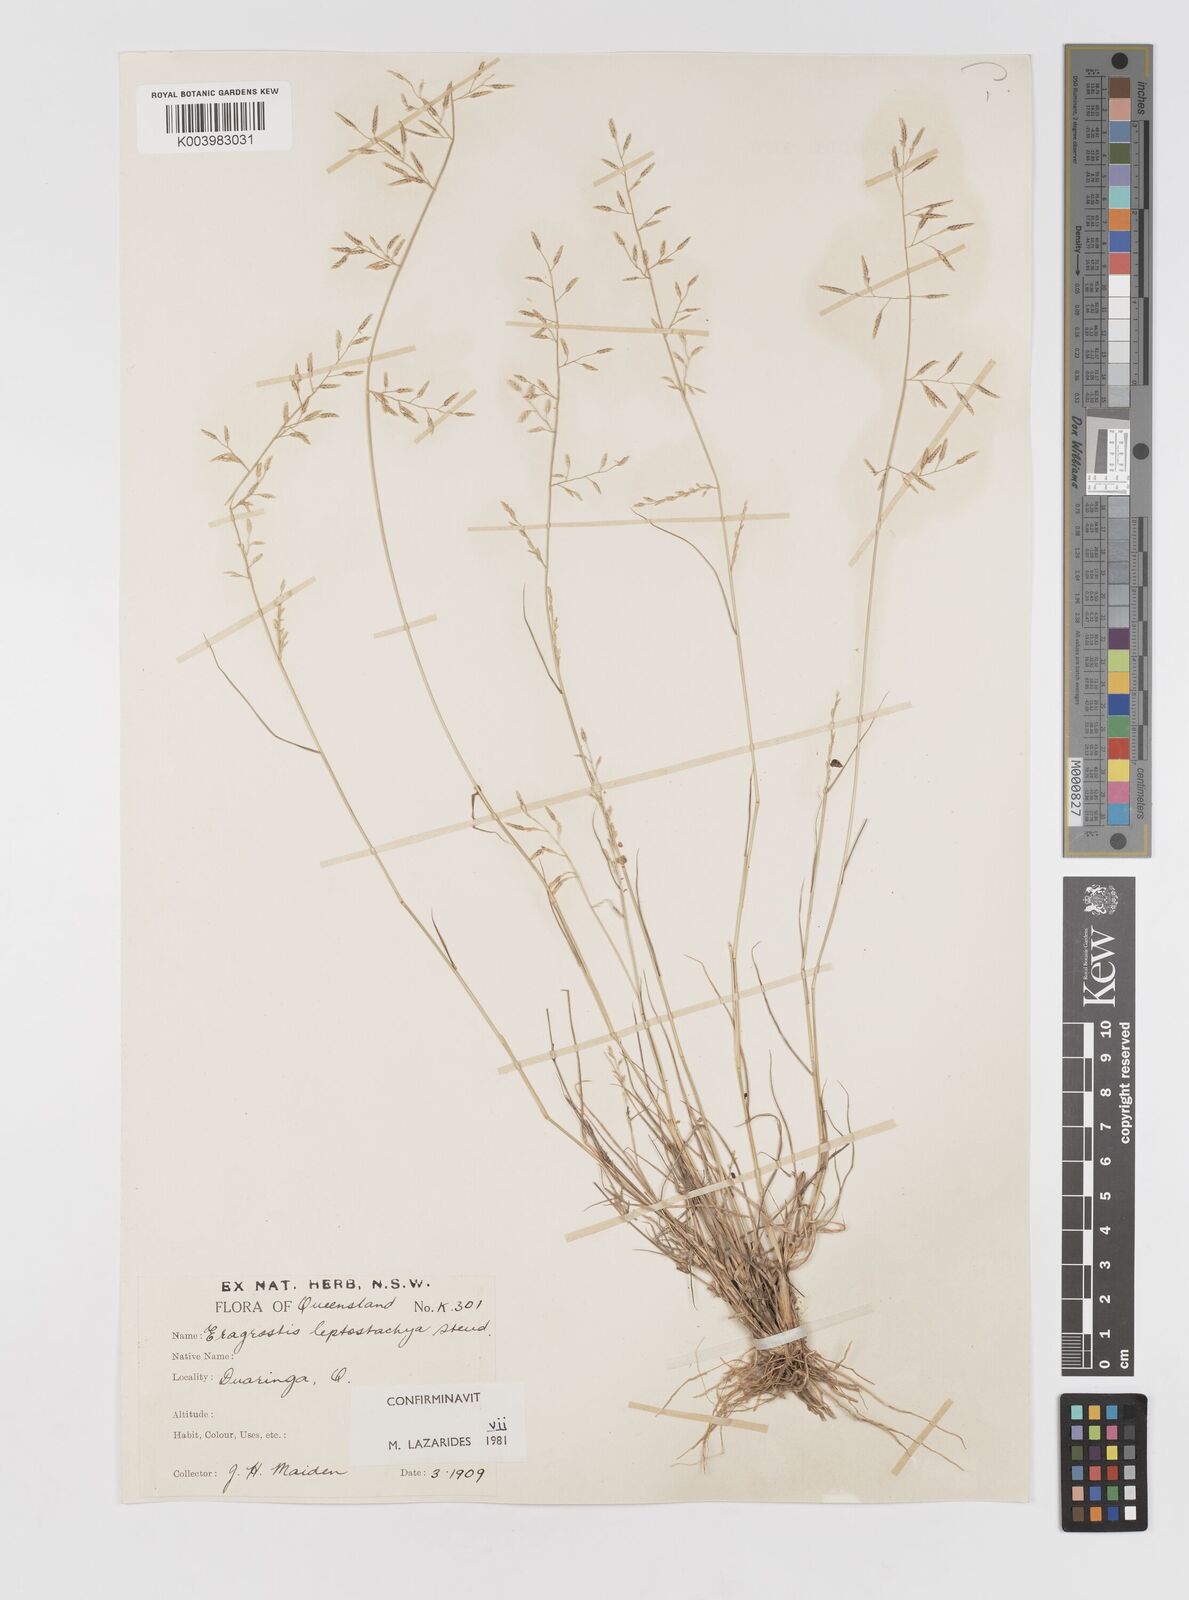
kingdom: Plantae
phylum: Tracheophyta
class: Liliopsida
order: Poales
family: Poaceae
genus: Eragrostis
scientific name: Eragrostis leptostachya
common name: Australian lovegrass
